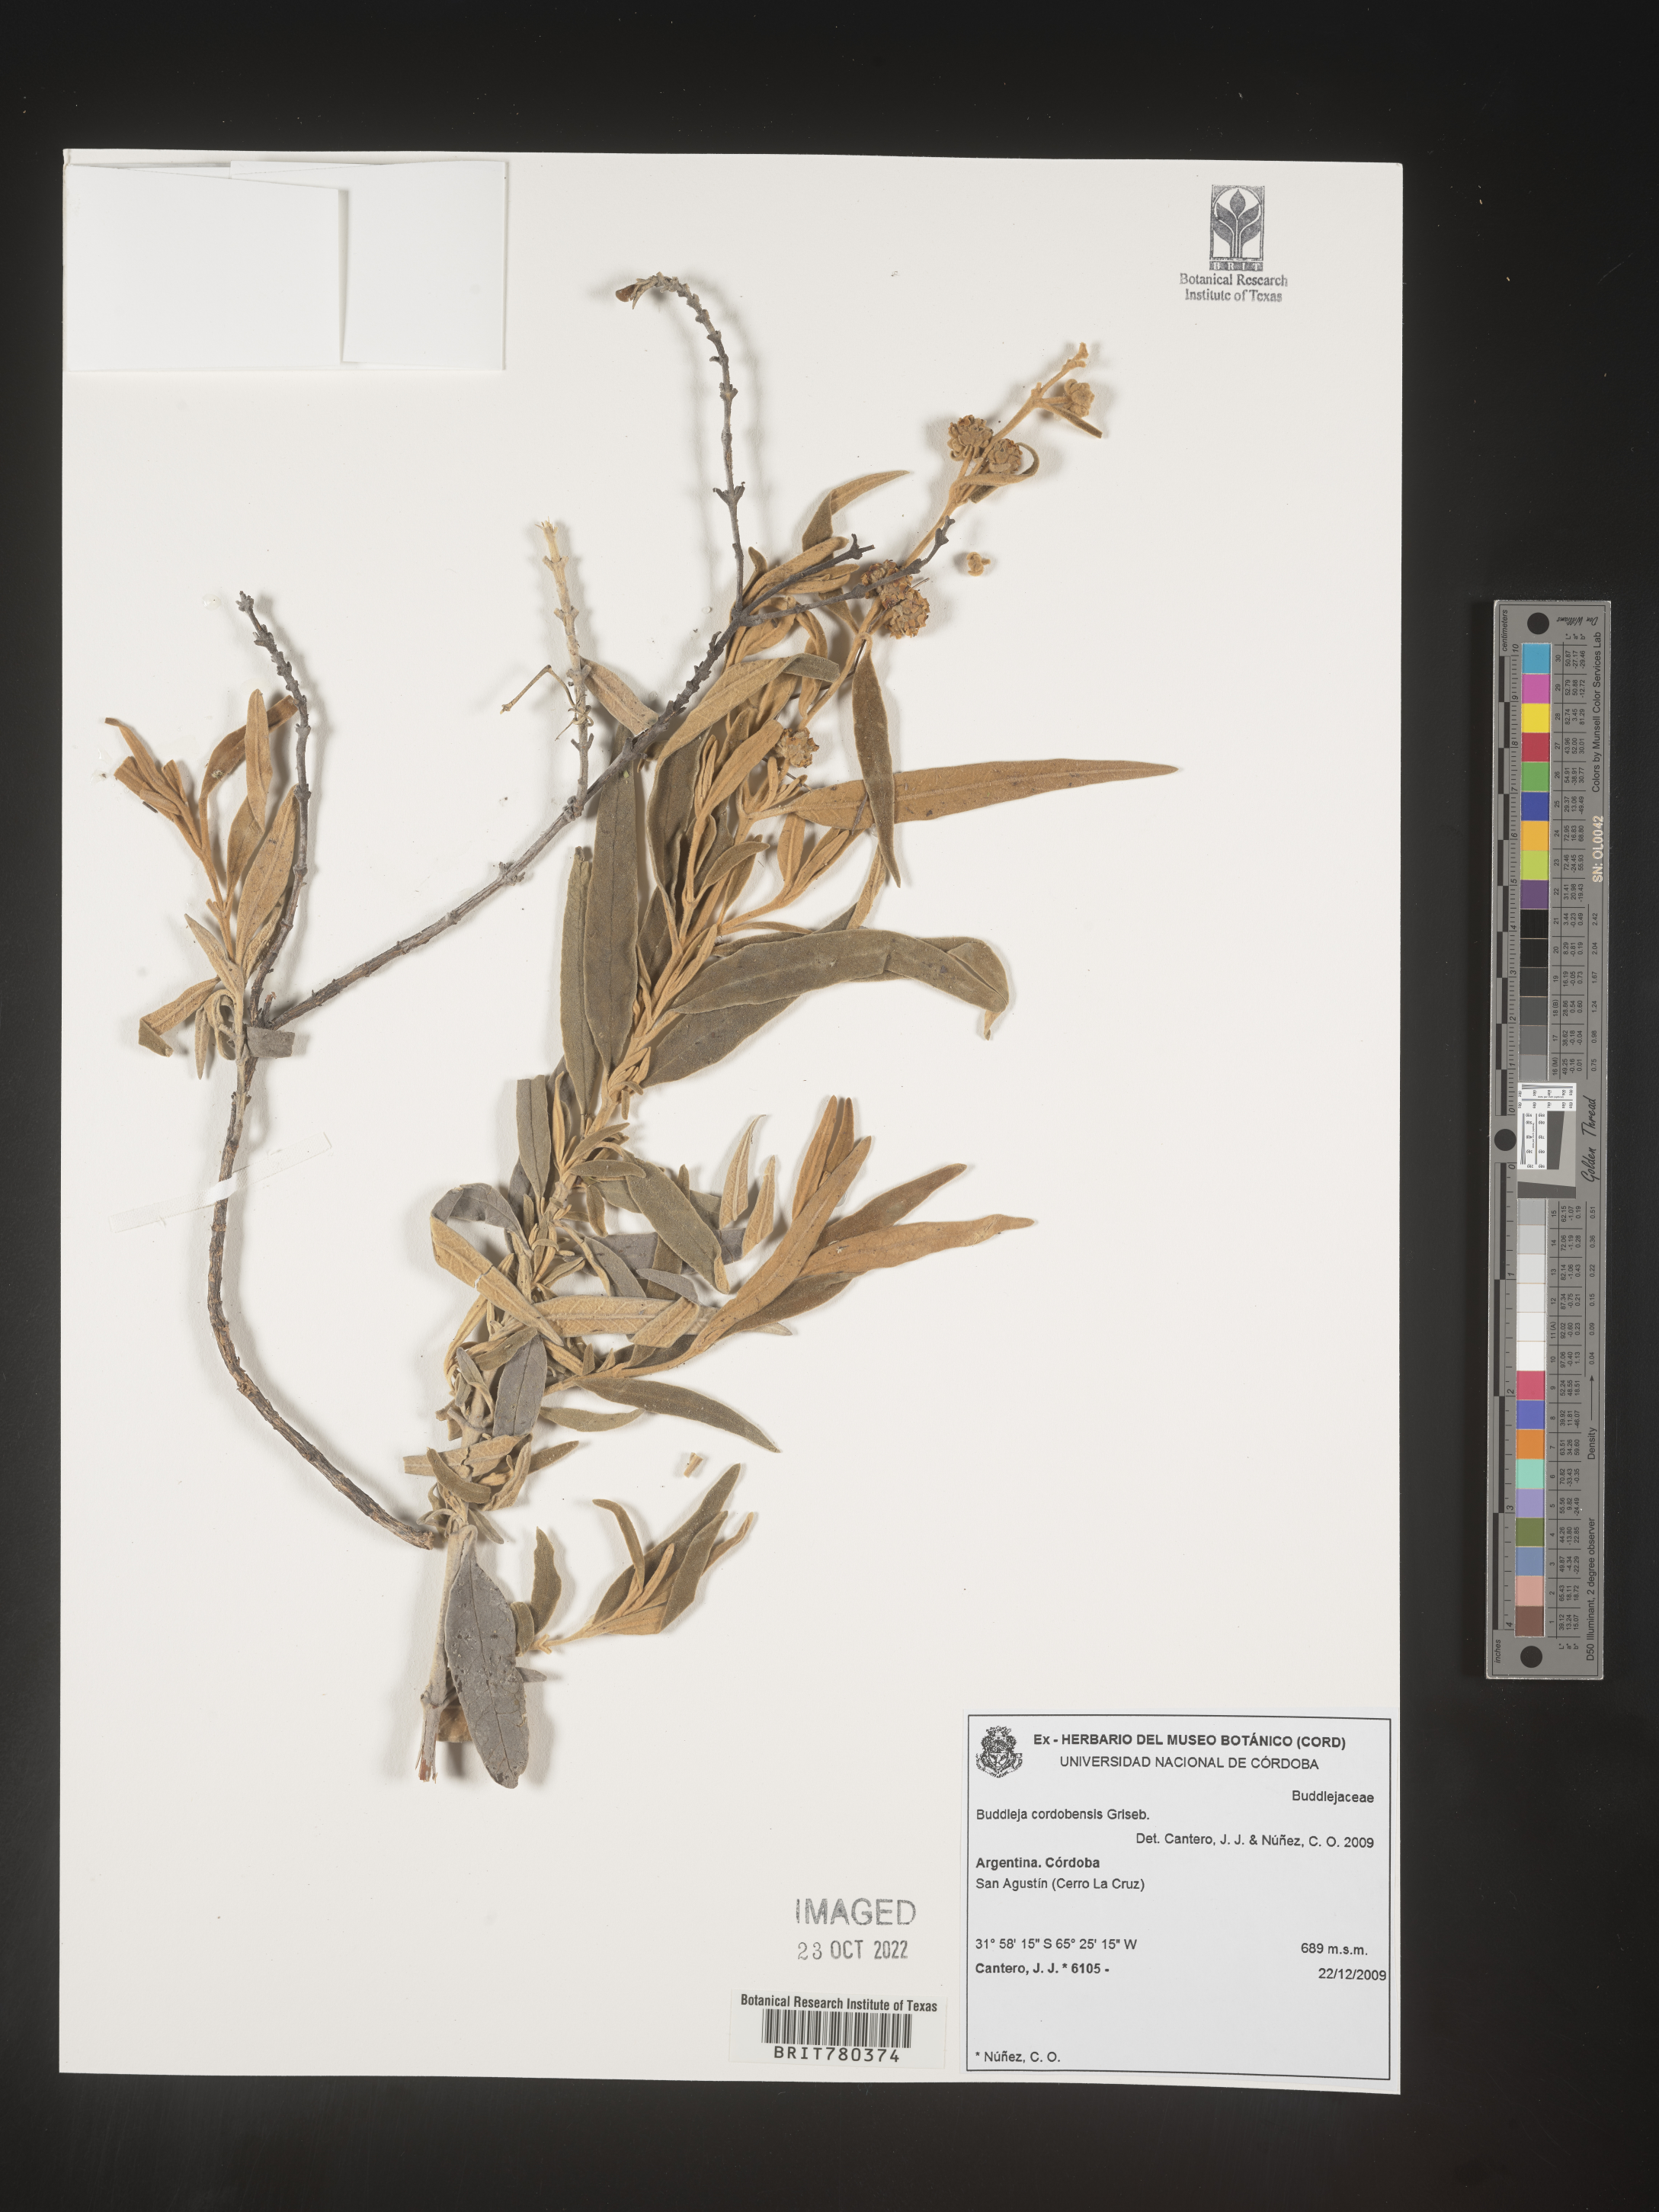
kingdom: Plantae
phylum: Tracheophyta
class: Magnoliopsida
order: Lamiales
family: Scrophulariaceae
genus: Buddleja
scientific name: Buddleja
